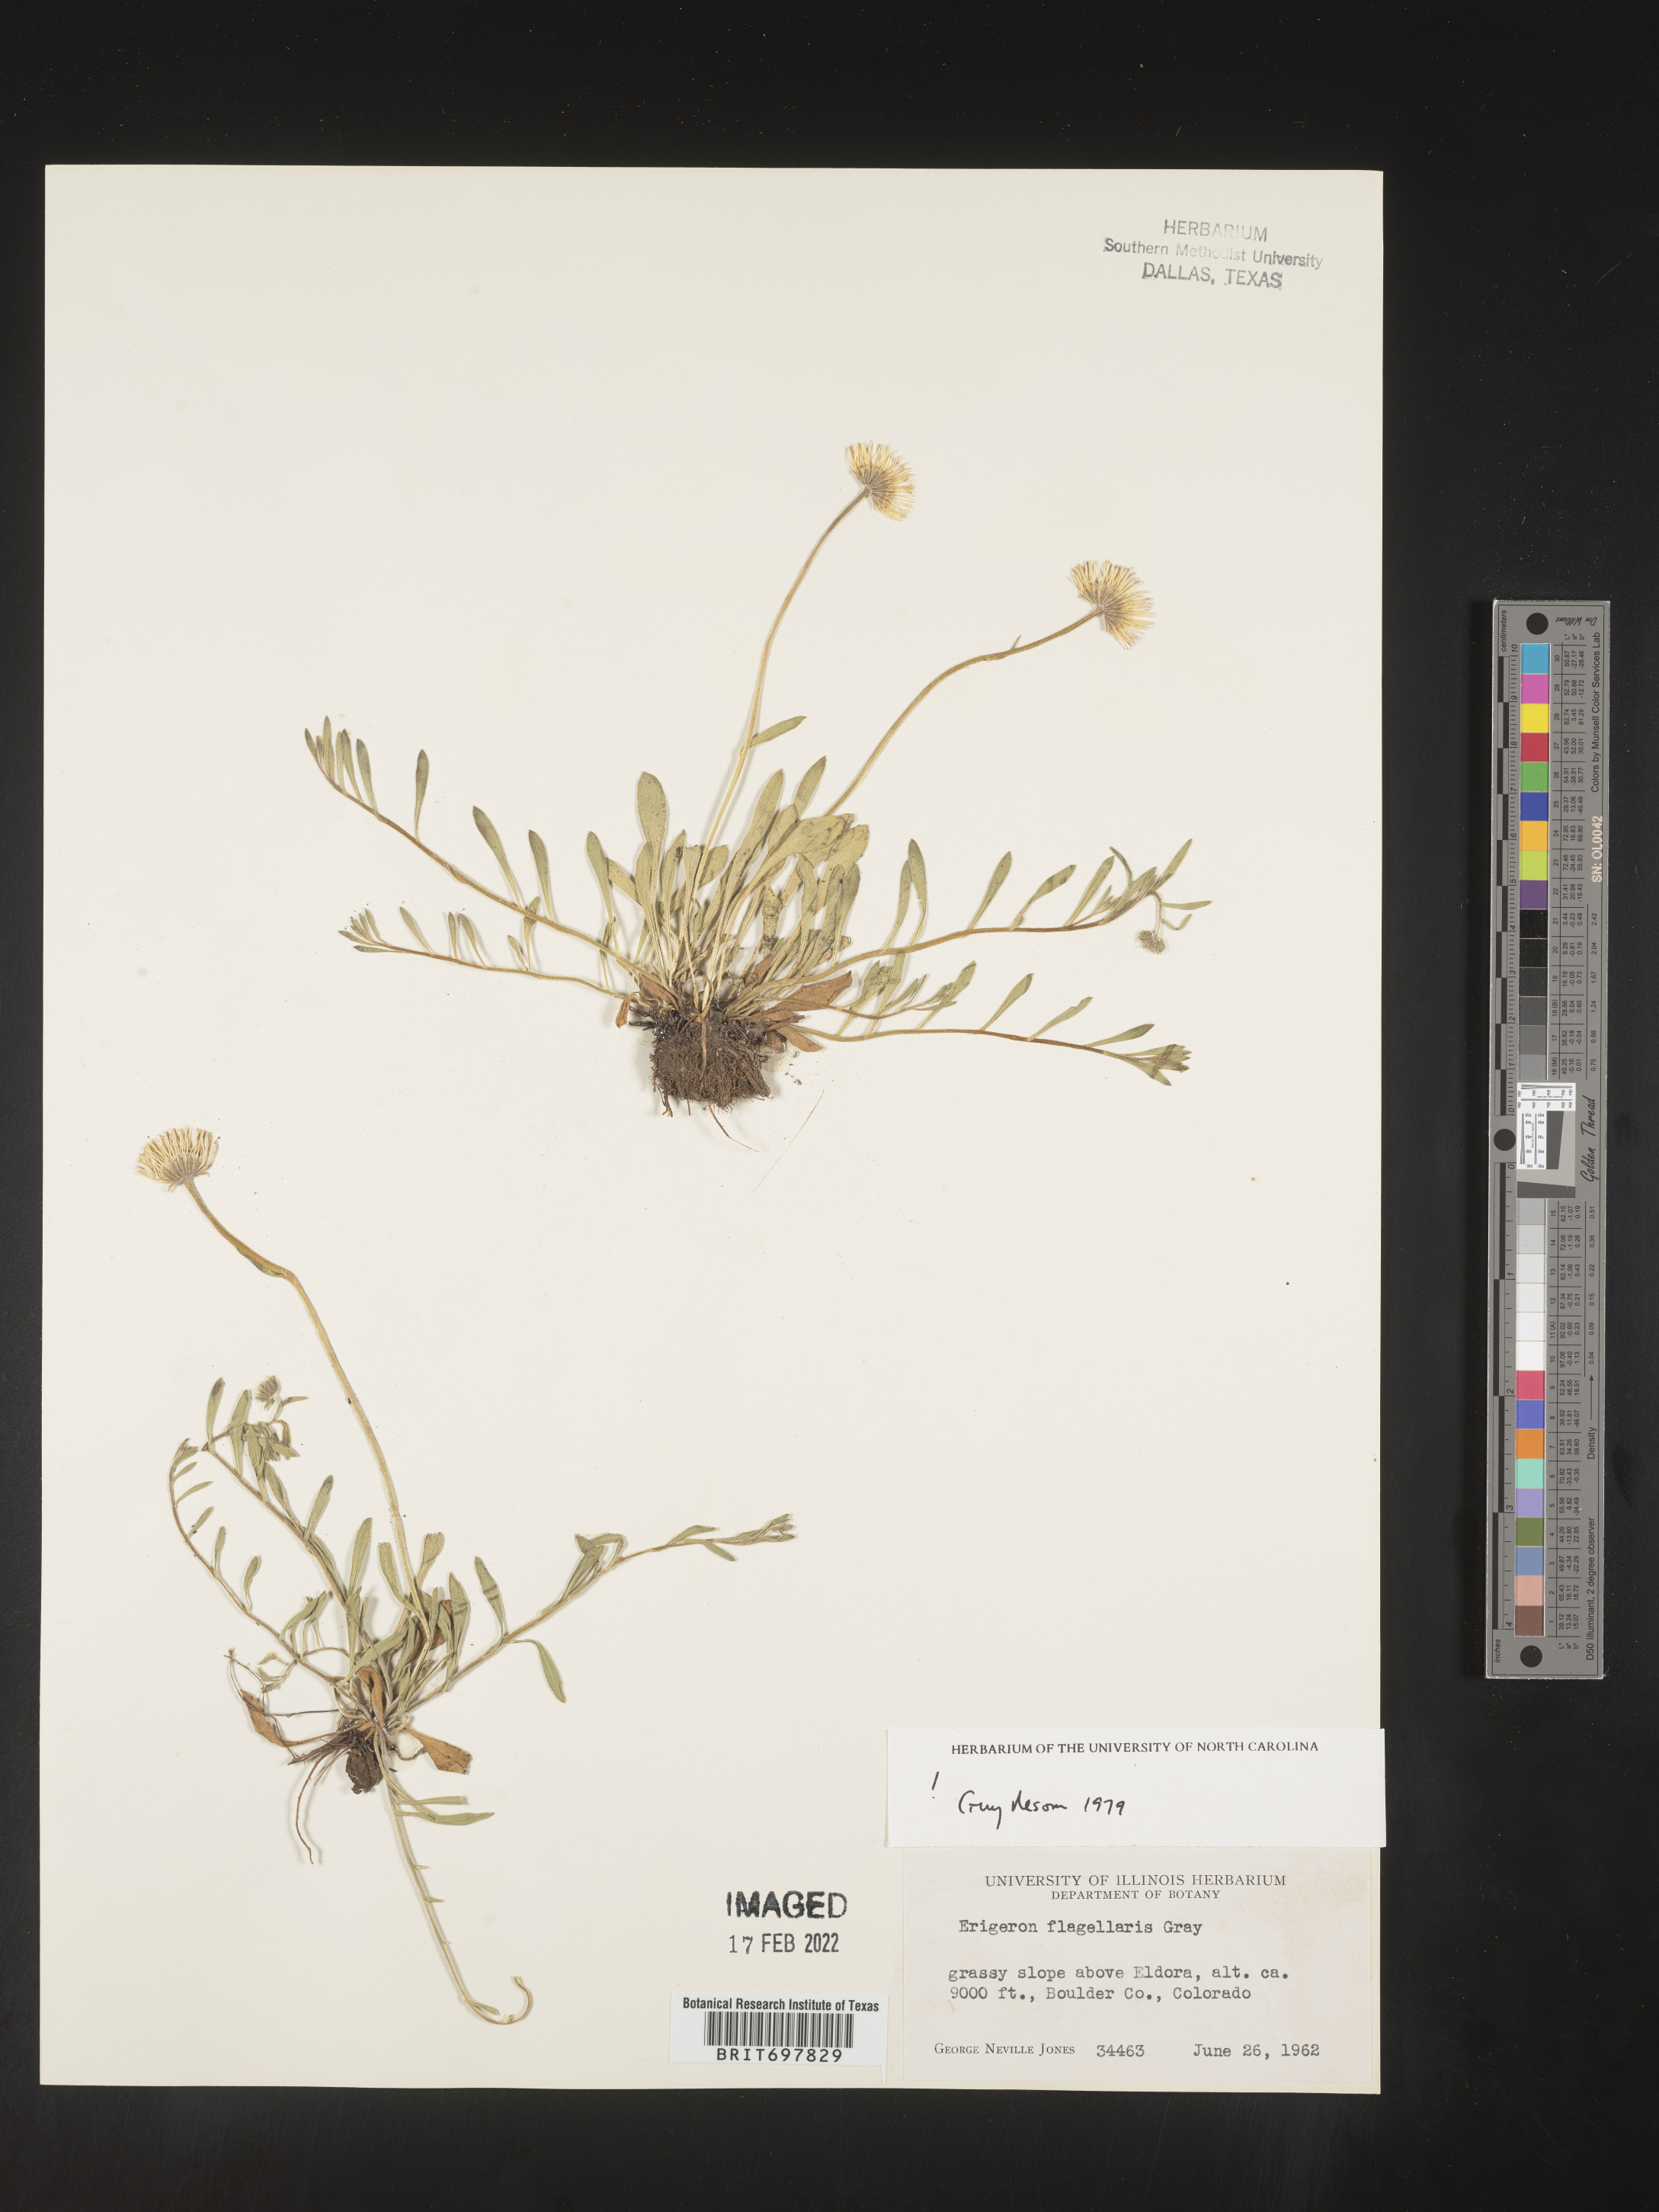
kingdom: Plantae
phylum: Tracheophyta
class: Magnoliopsida
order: Asterales
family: Asteraceae
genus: Erigeron
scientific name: Erigeron flagellaris
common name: Running fleabane
